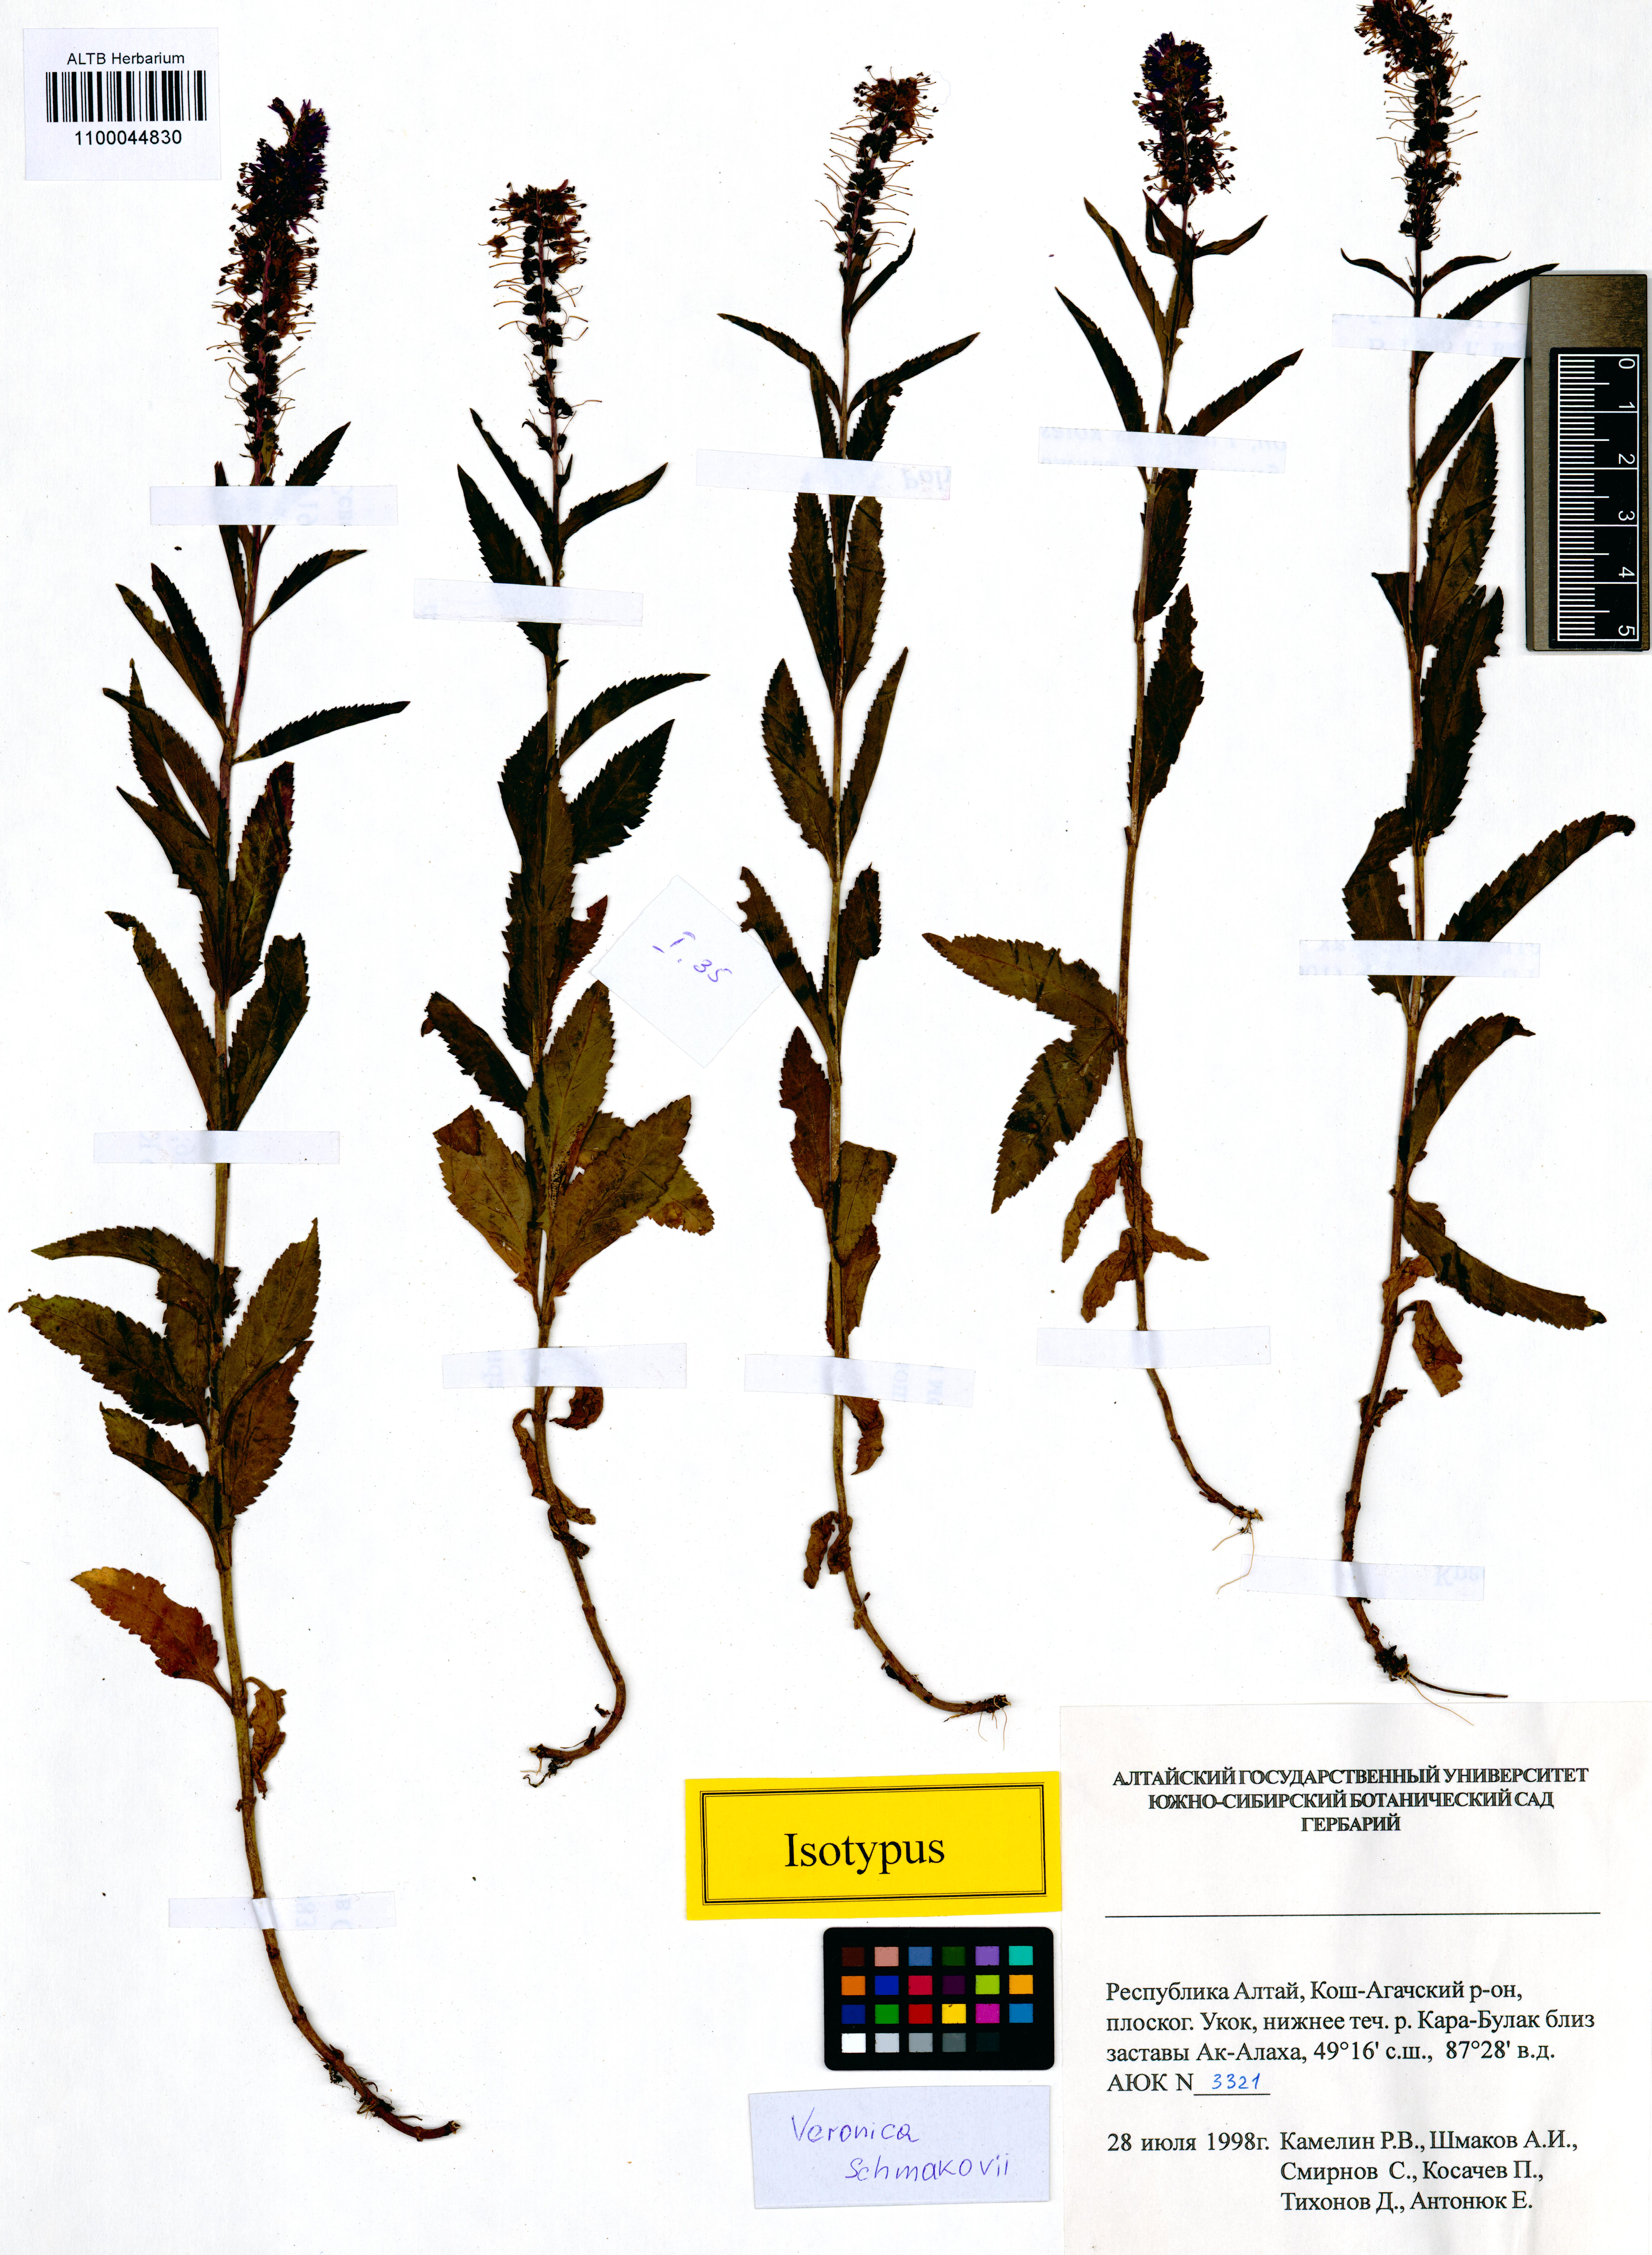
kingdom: Plantae
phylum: Tracheophyta
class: Magnoliopsida
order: Lamiales
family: Plantaginaceae
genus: Veronica
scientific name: Veronica schmakovii
